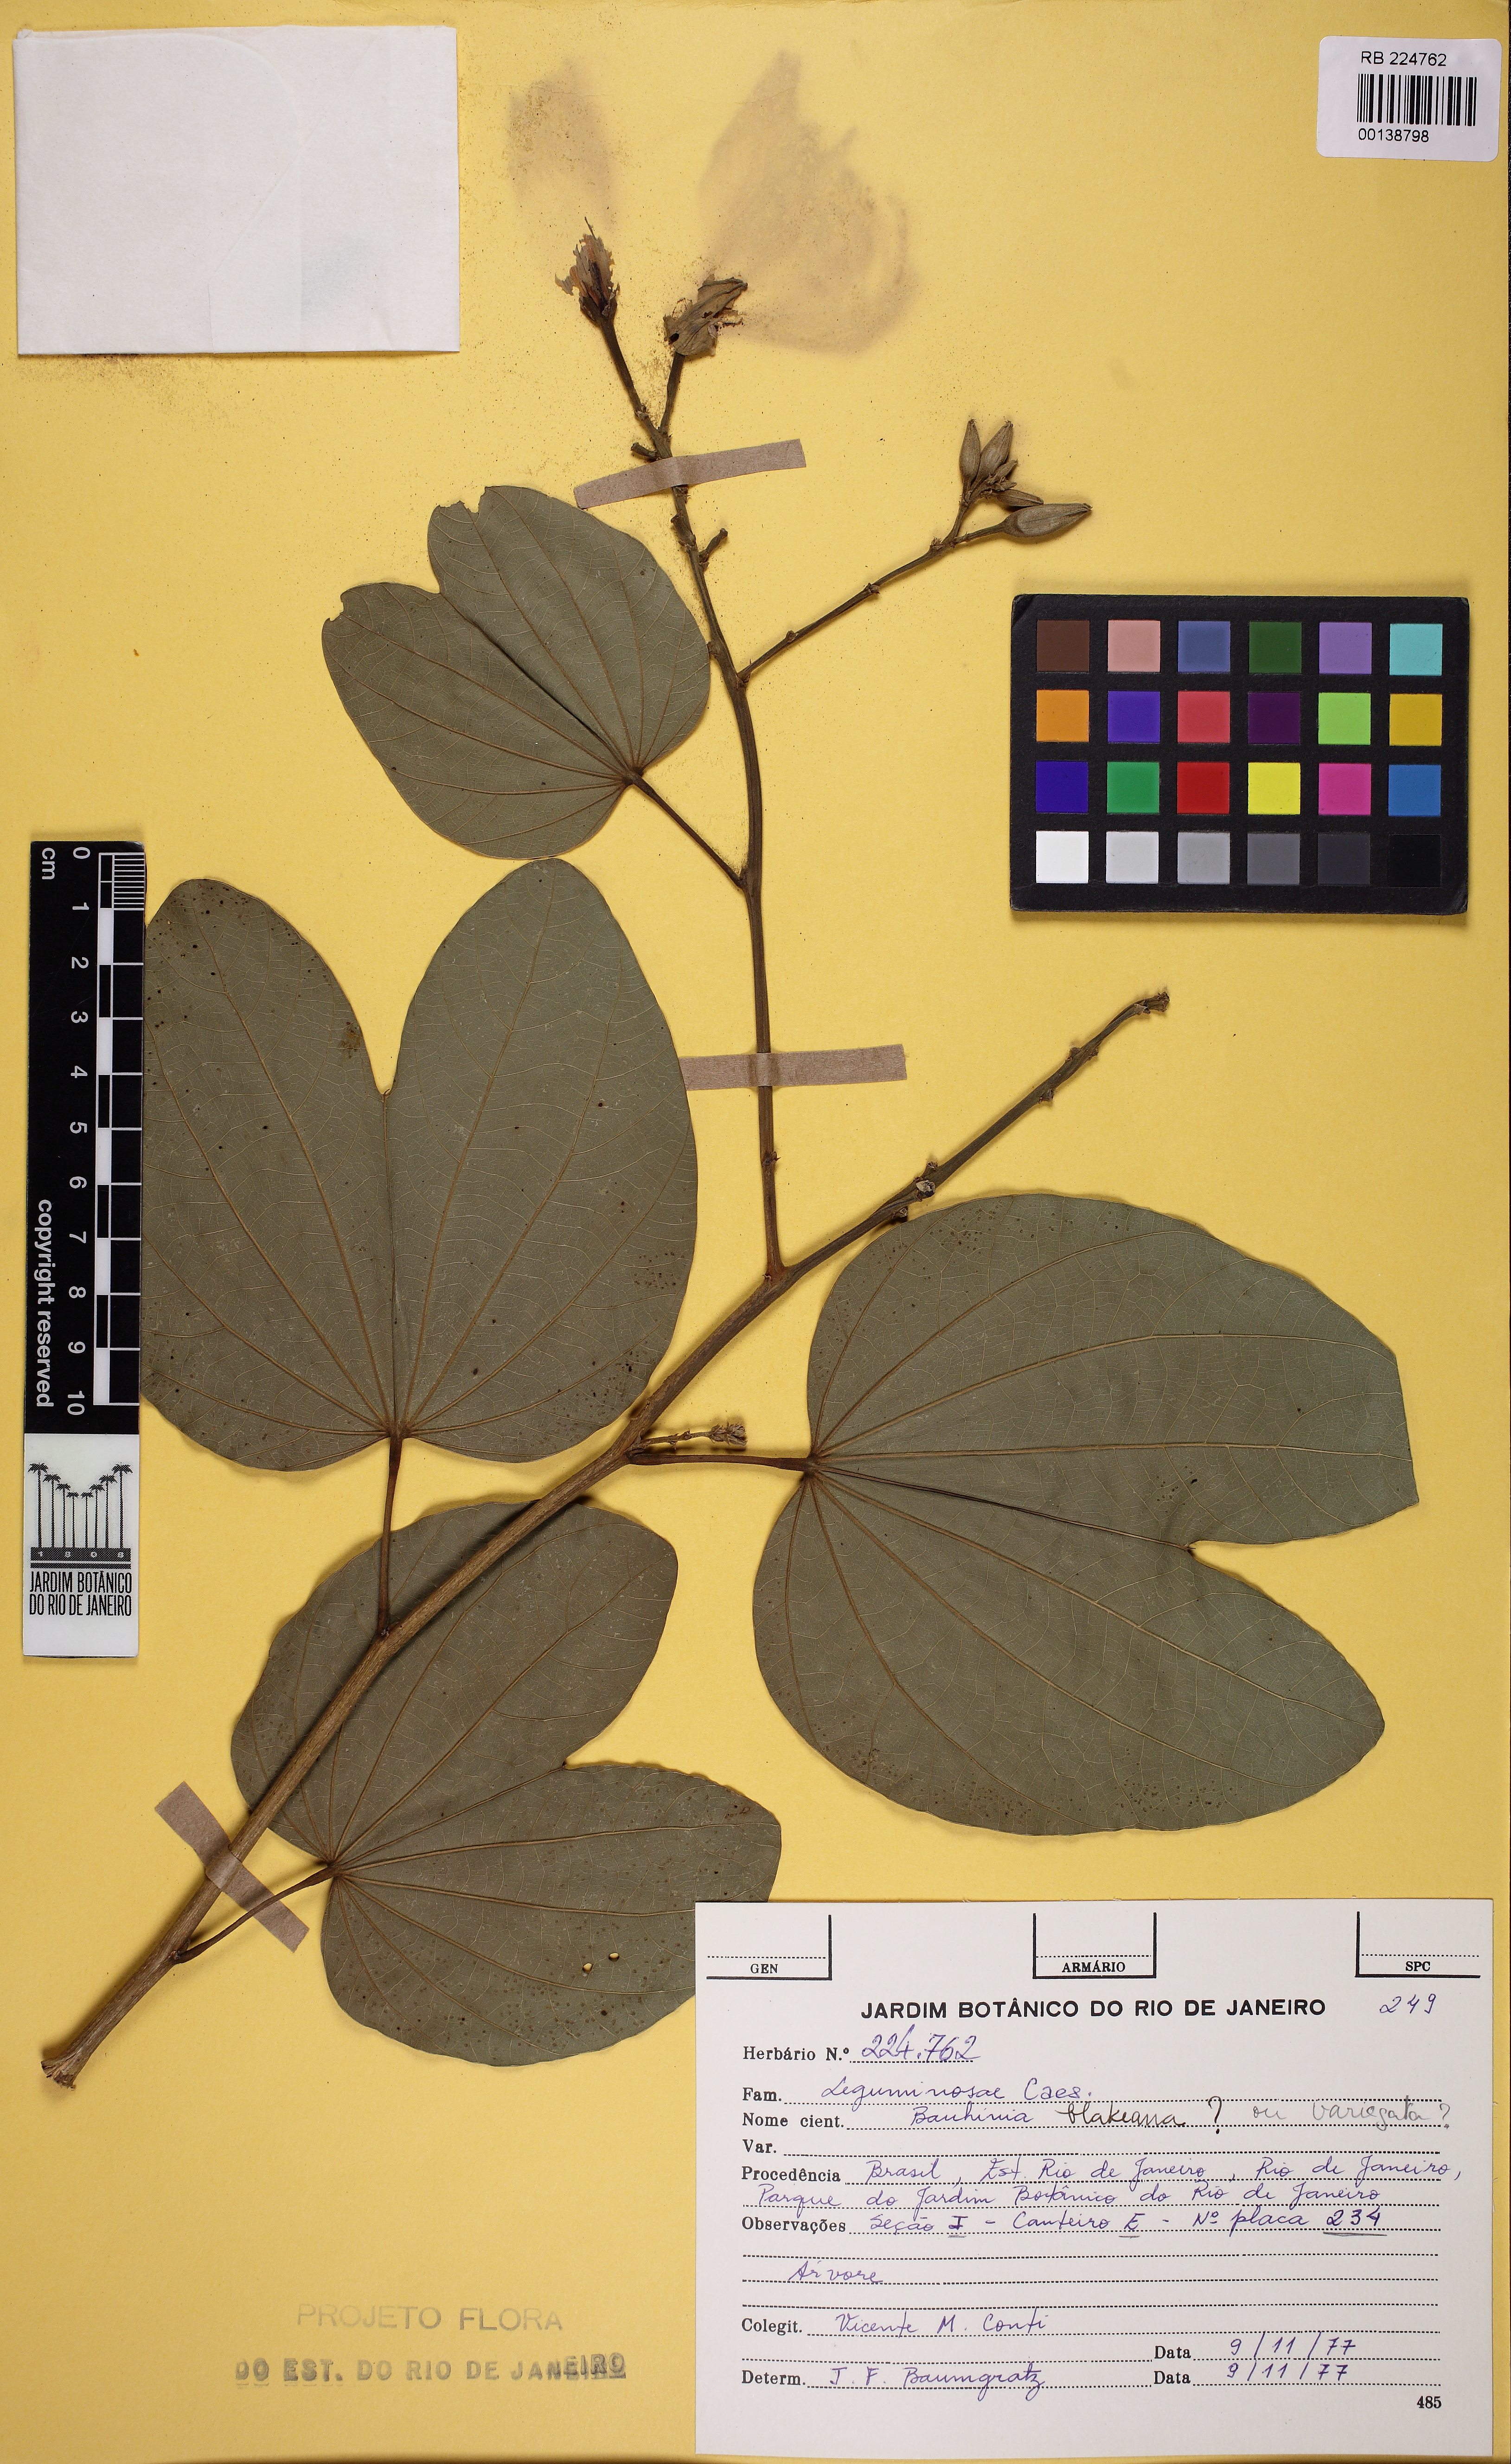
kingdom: Plantae
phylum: Tracheophyta
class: Magnoliopsida
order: Fabales
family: Fabaceae
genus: Bauhinia
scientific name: Bauhinia
